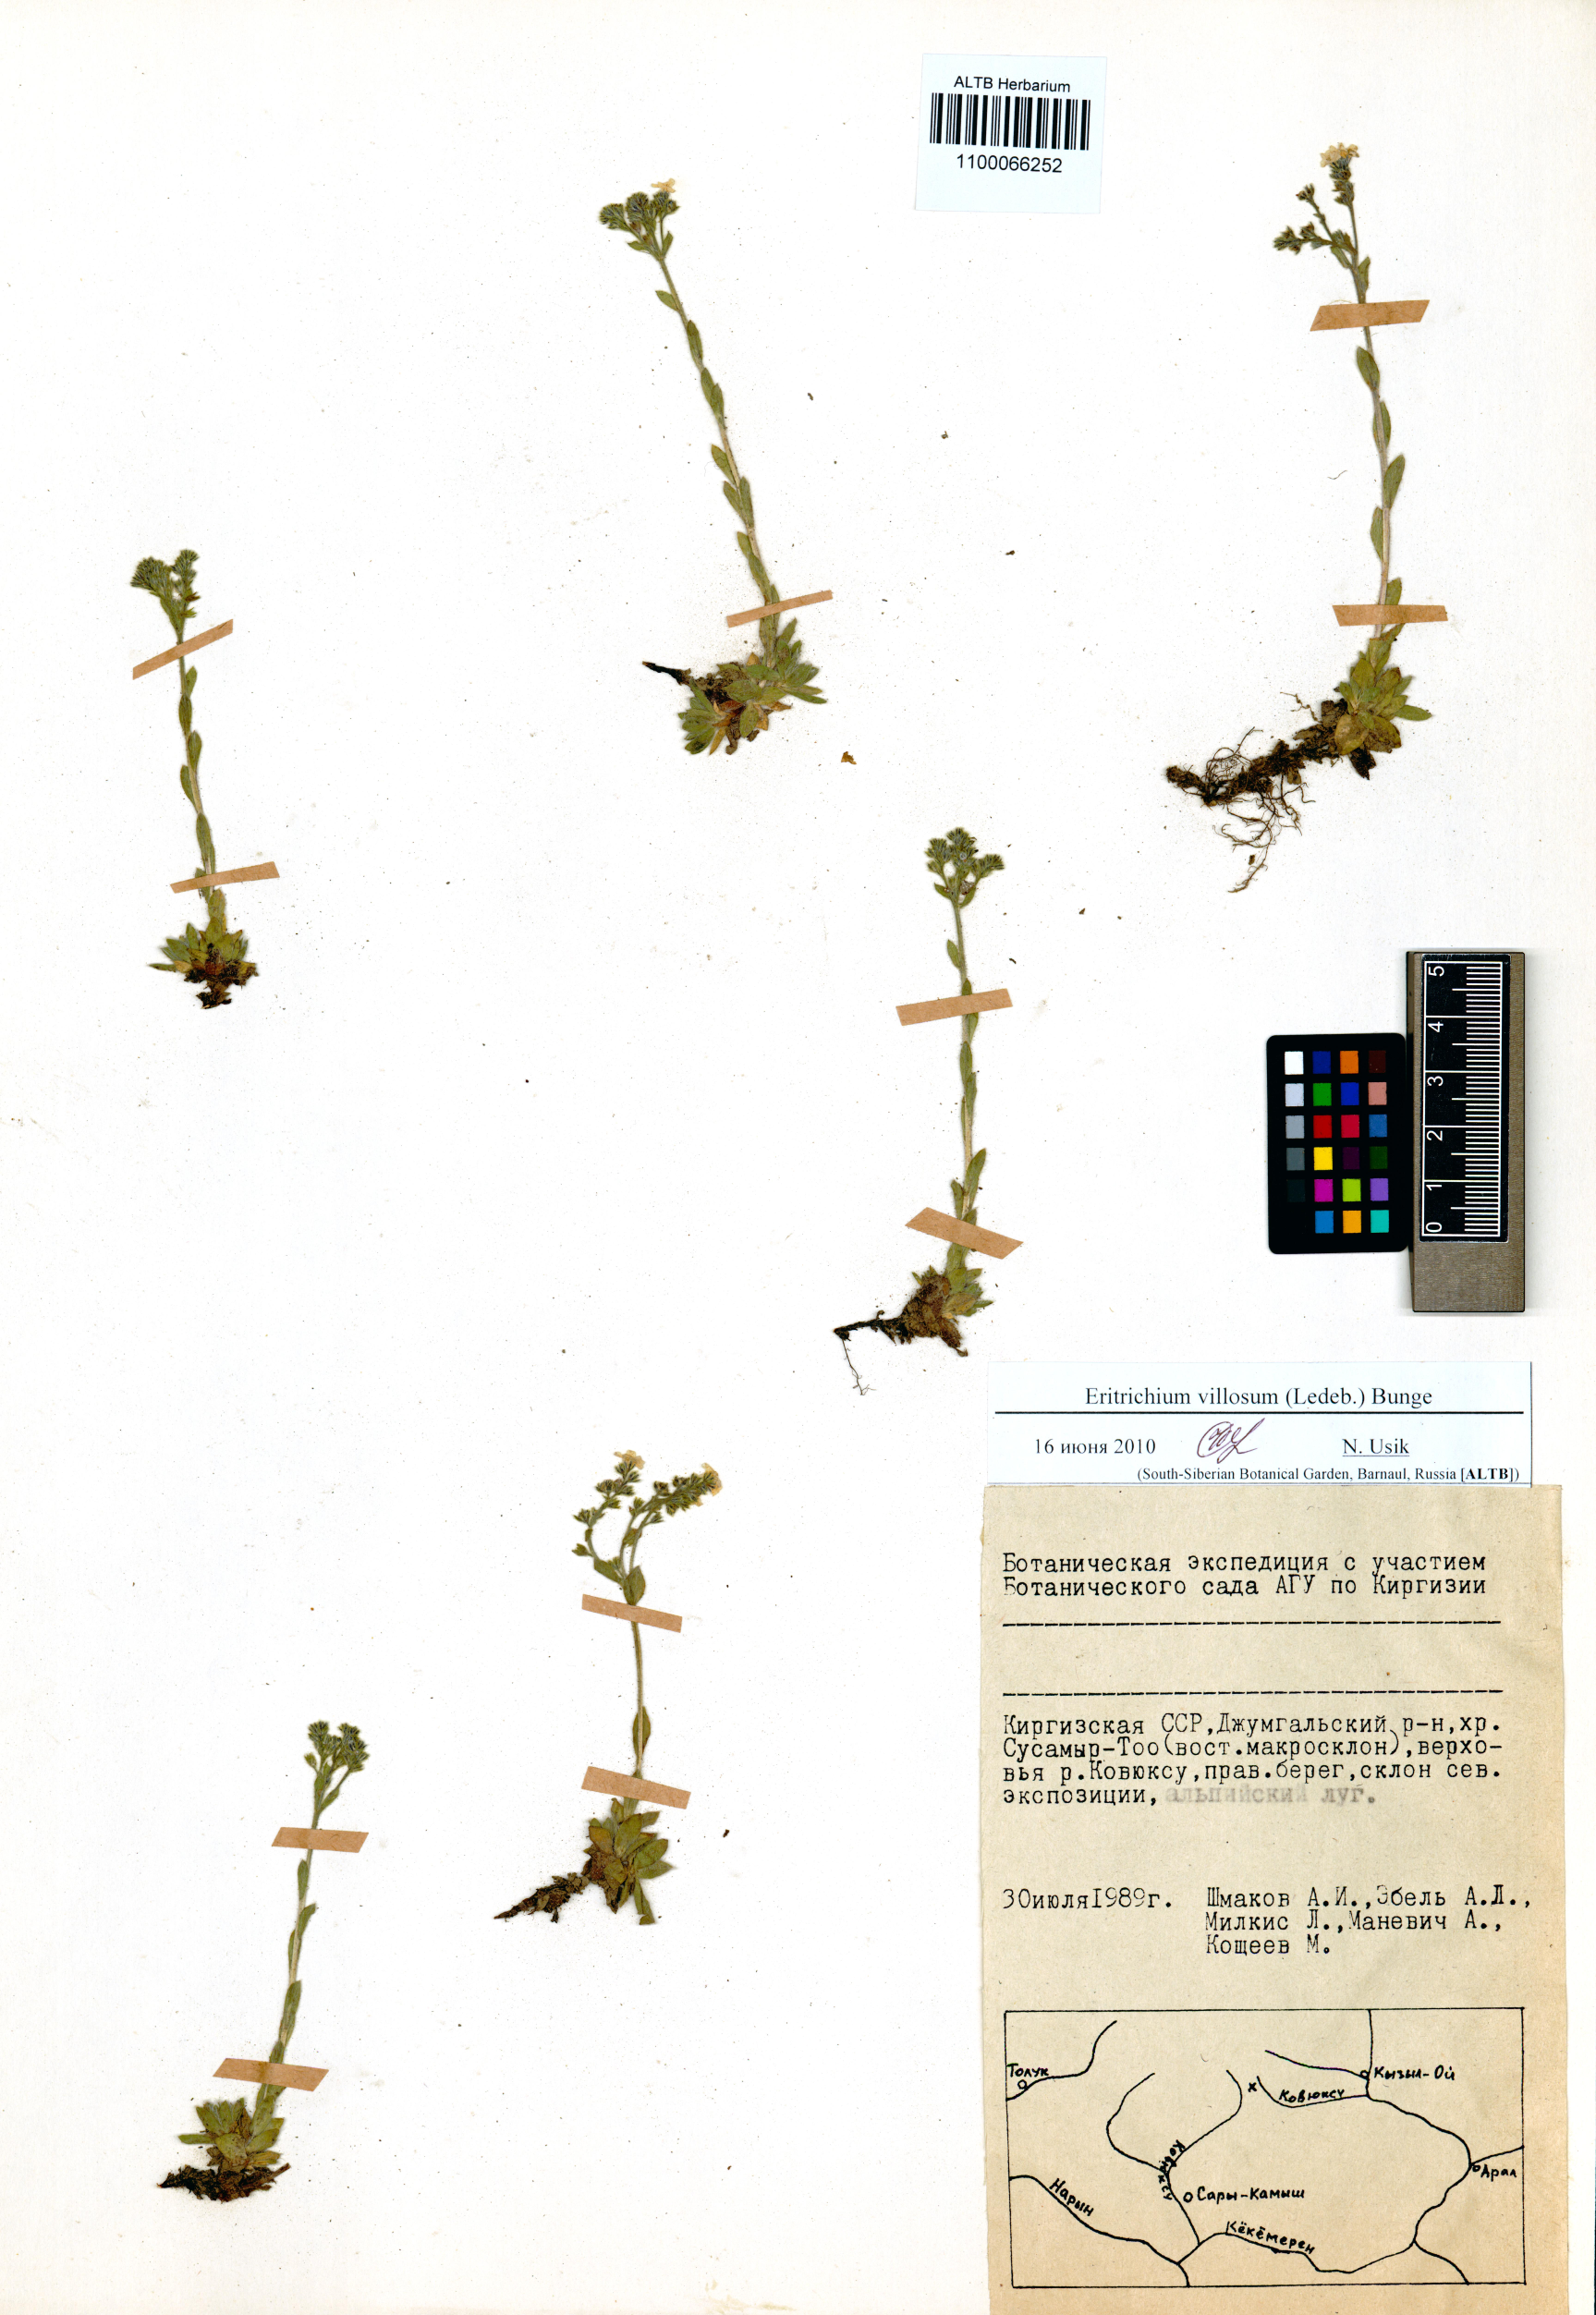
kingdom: Plantae
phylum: Tracheophyta
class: Magnoliopsida
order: Boraginales
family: Boraginaceae
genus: Eritrichium
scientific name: Eritrichium villosum
